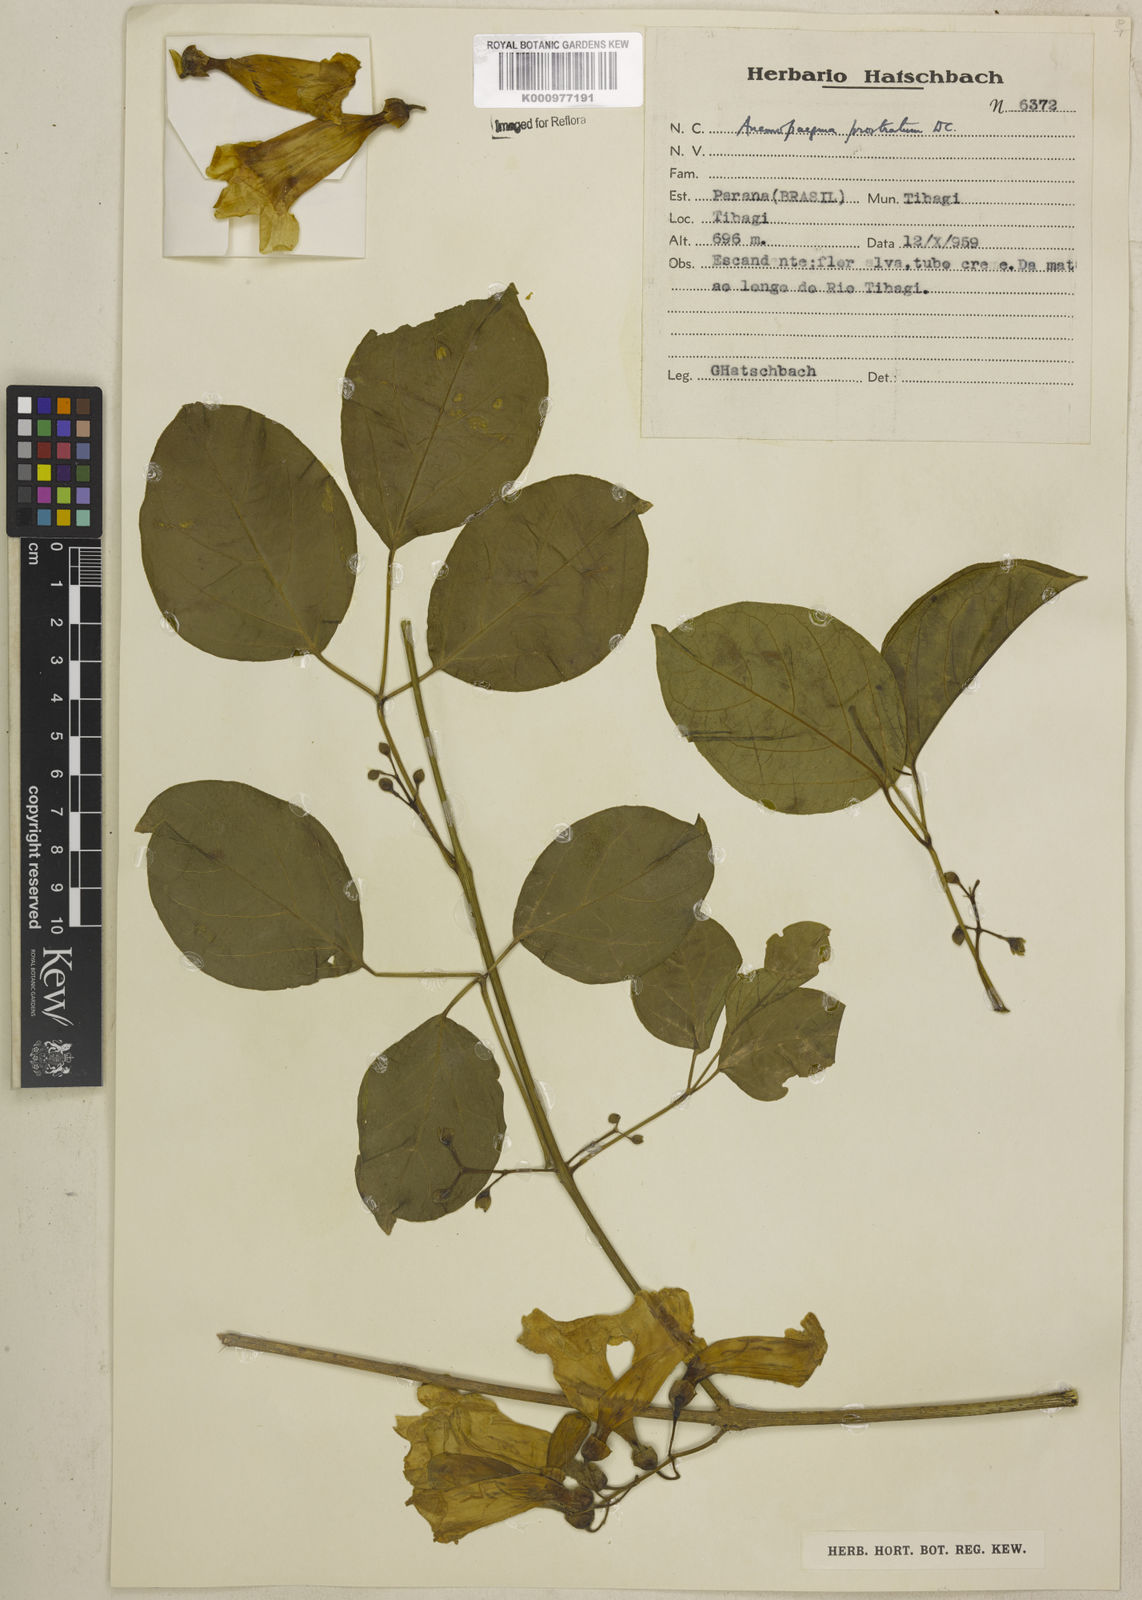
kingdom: Plantae
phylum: Tracheophyta
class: Magnoliopsida
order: Lamiales
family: Bignoniaceae
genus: Anemopaegma
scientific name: Anemopaegma prostratum
